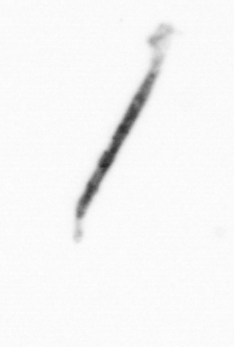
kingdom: Bacteria
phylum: Cyanobacteria
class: Cyanobacteriia
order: Cyanobacteriales
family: Microcoleaceae
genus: Trichodesmium
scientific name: Trichodesmium
